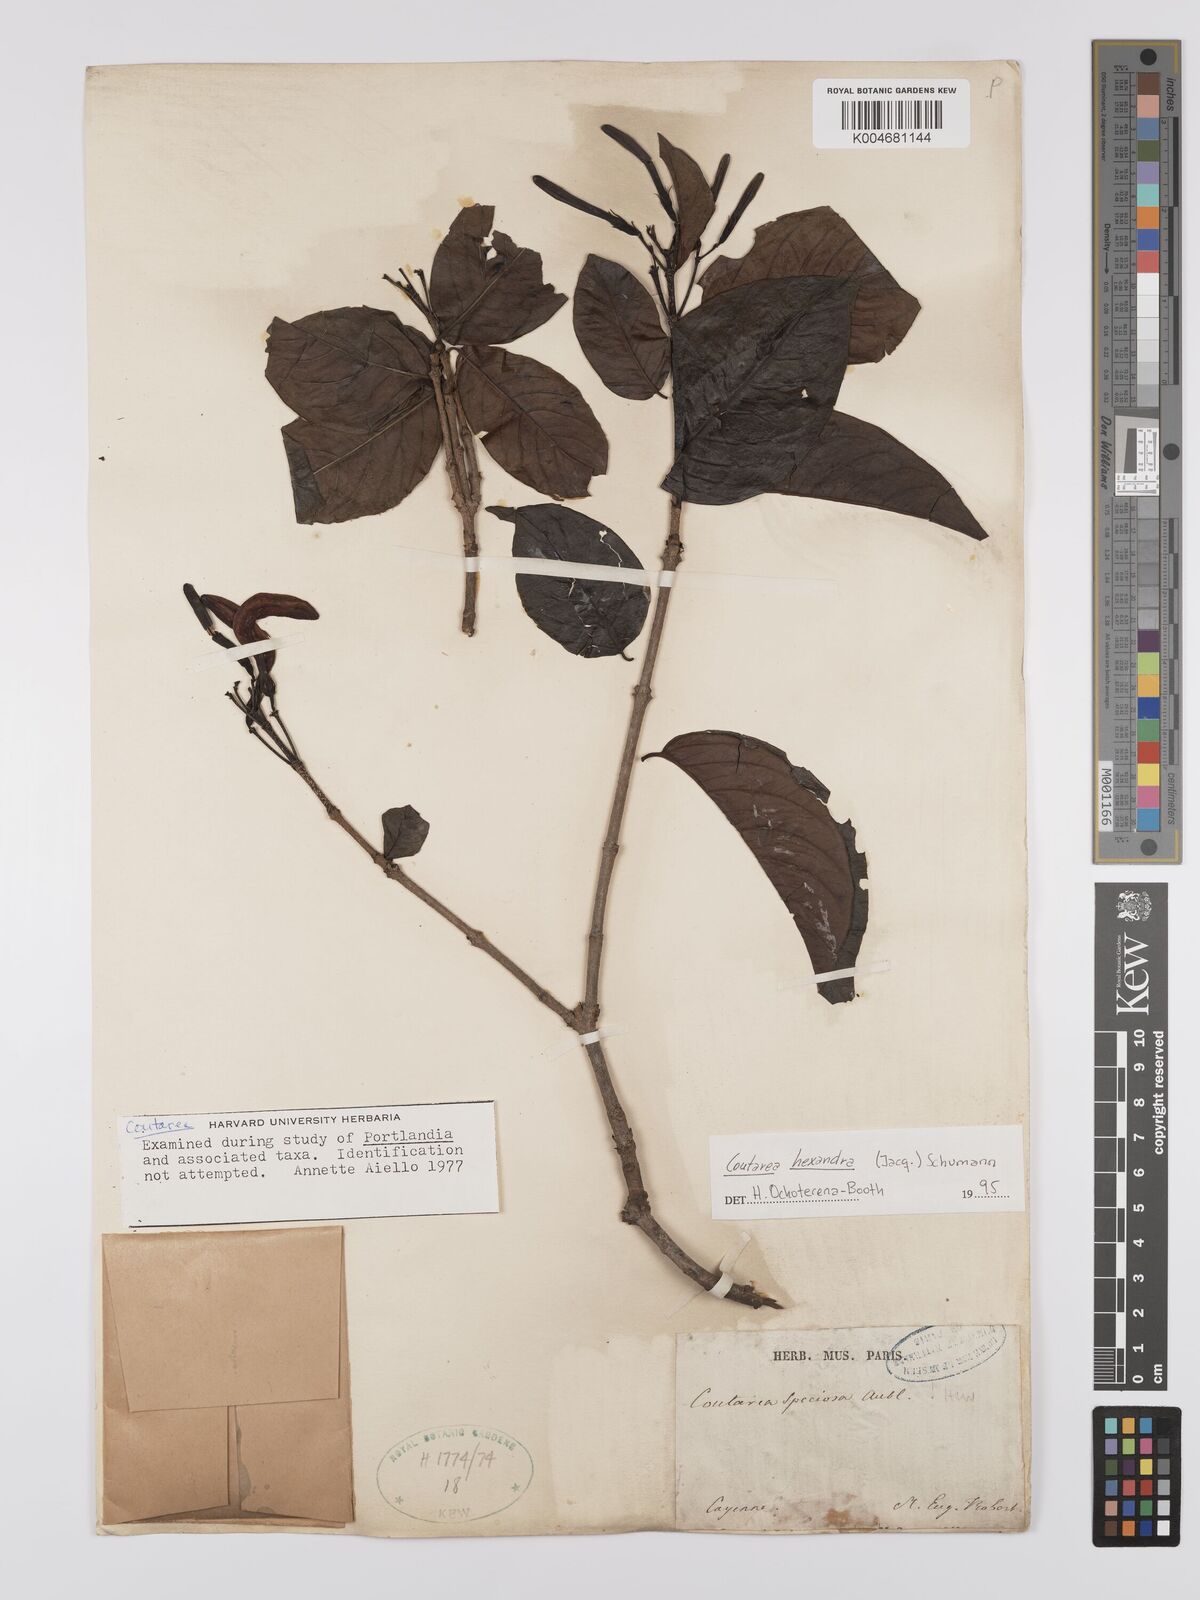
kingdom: Plantae
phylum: Tracheophyta
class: Magnoliopsida
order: Gentianales
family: Rubiaceae
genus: Coutarea
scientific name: Coutarea hexandra
